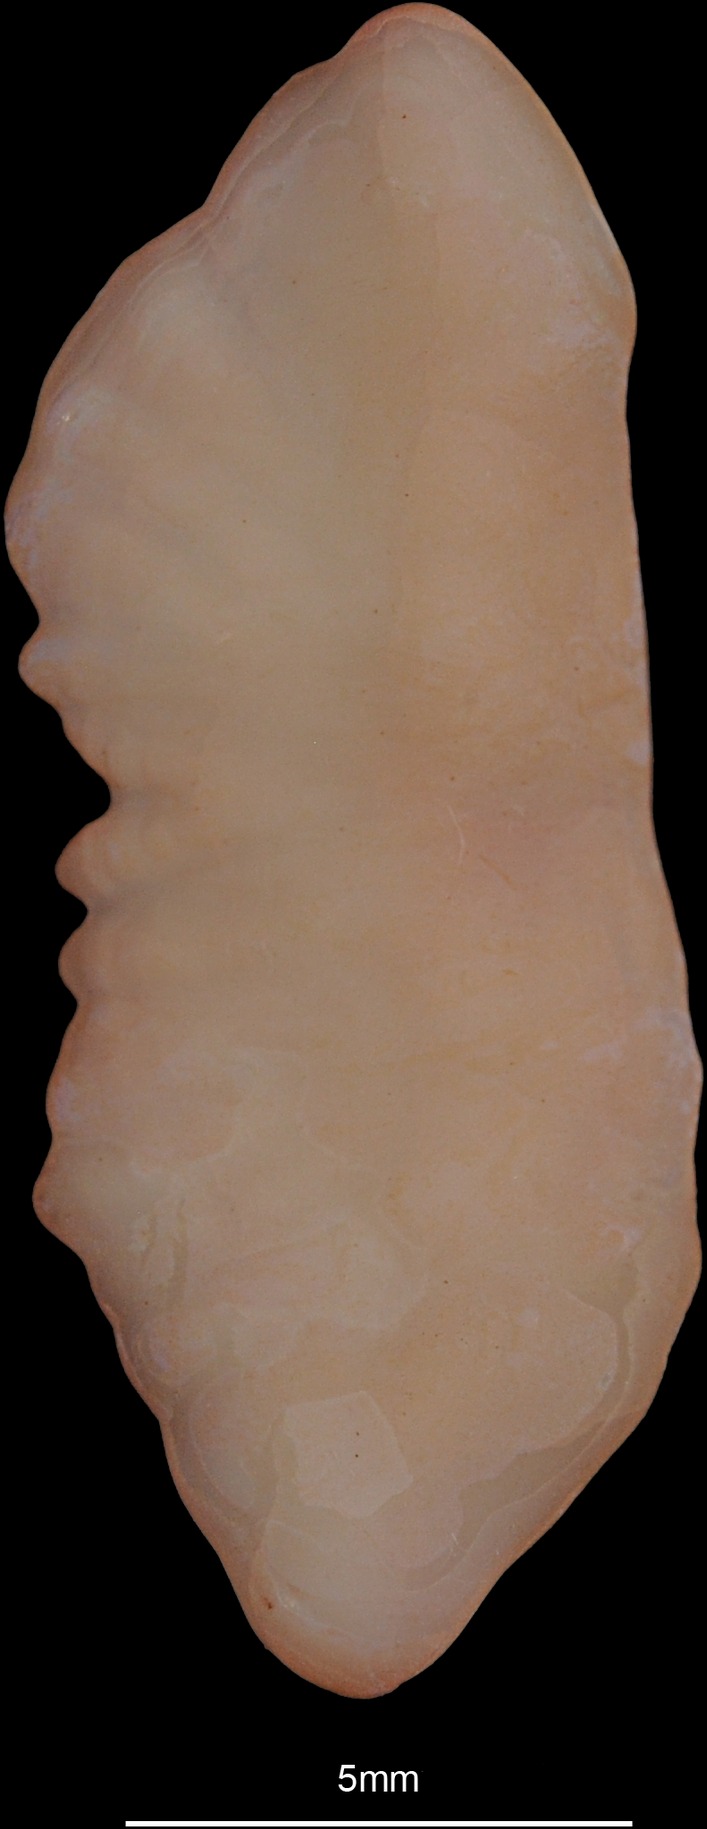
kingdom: Animalia
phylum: Chordata
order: Gadiformes
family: Lotidae
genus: Molva
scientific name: Molva dypterygia
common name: Blue ling
